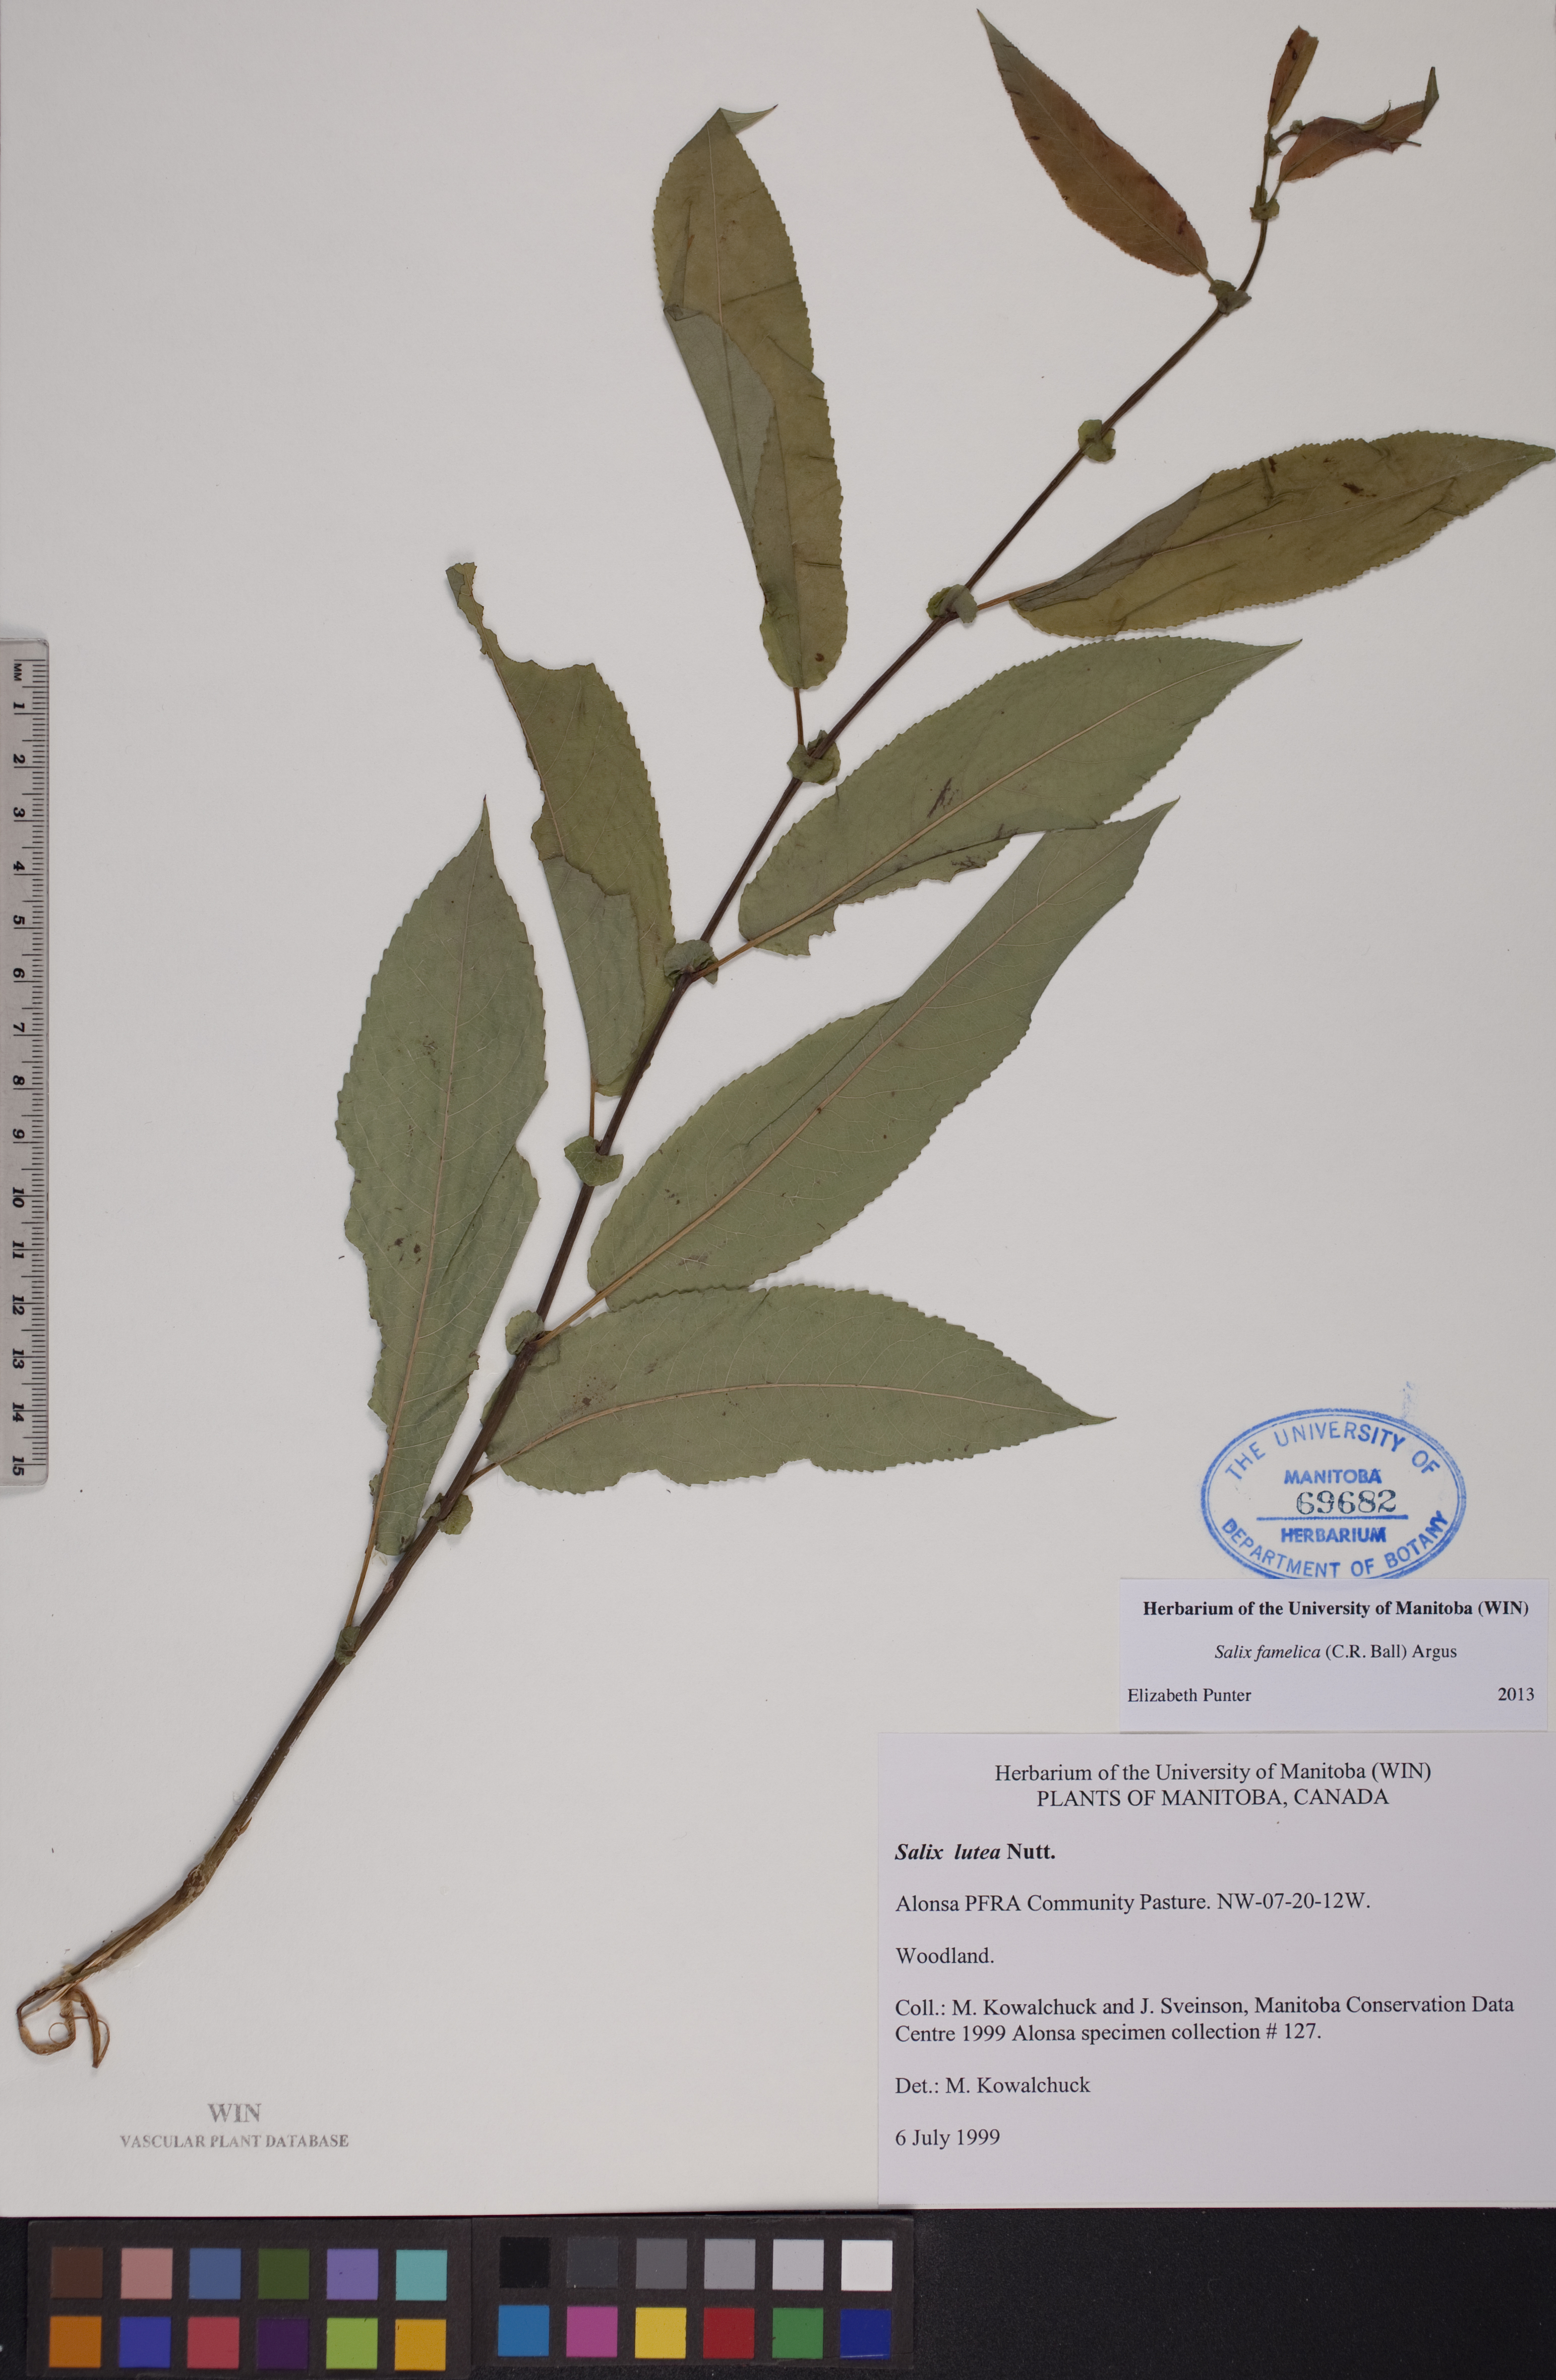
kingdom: Plantae
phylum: Tracheophyta
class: Magnoliopsida
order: Malpighiales
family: Salicaceae
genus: Salix
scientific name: Salix famelica
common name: Hungry willow
